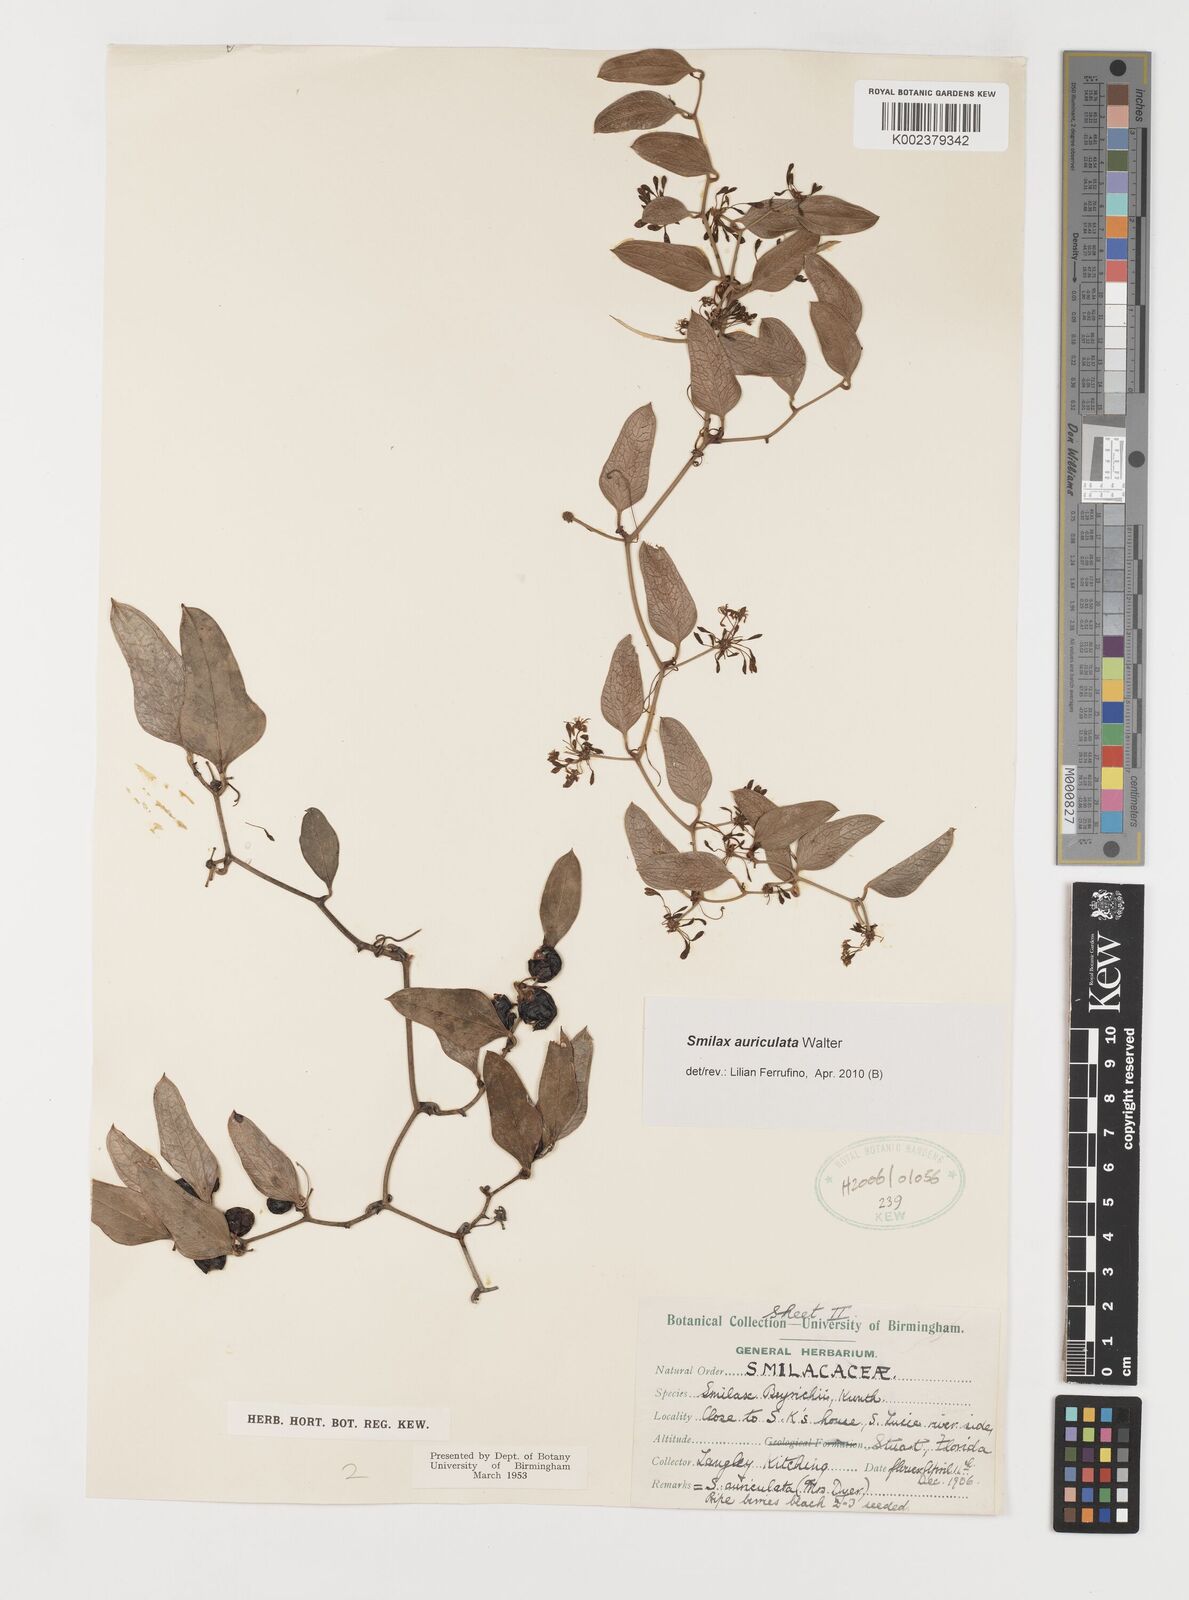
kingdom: Plantae
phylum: Tracheophyta
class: Liliopsida
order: Liliales
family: Smilacaceae
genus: Smilax
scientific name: Smilax auriculata
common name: Wild bamboo
